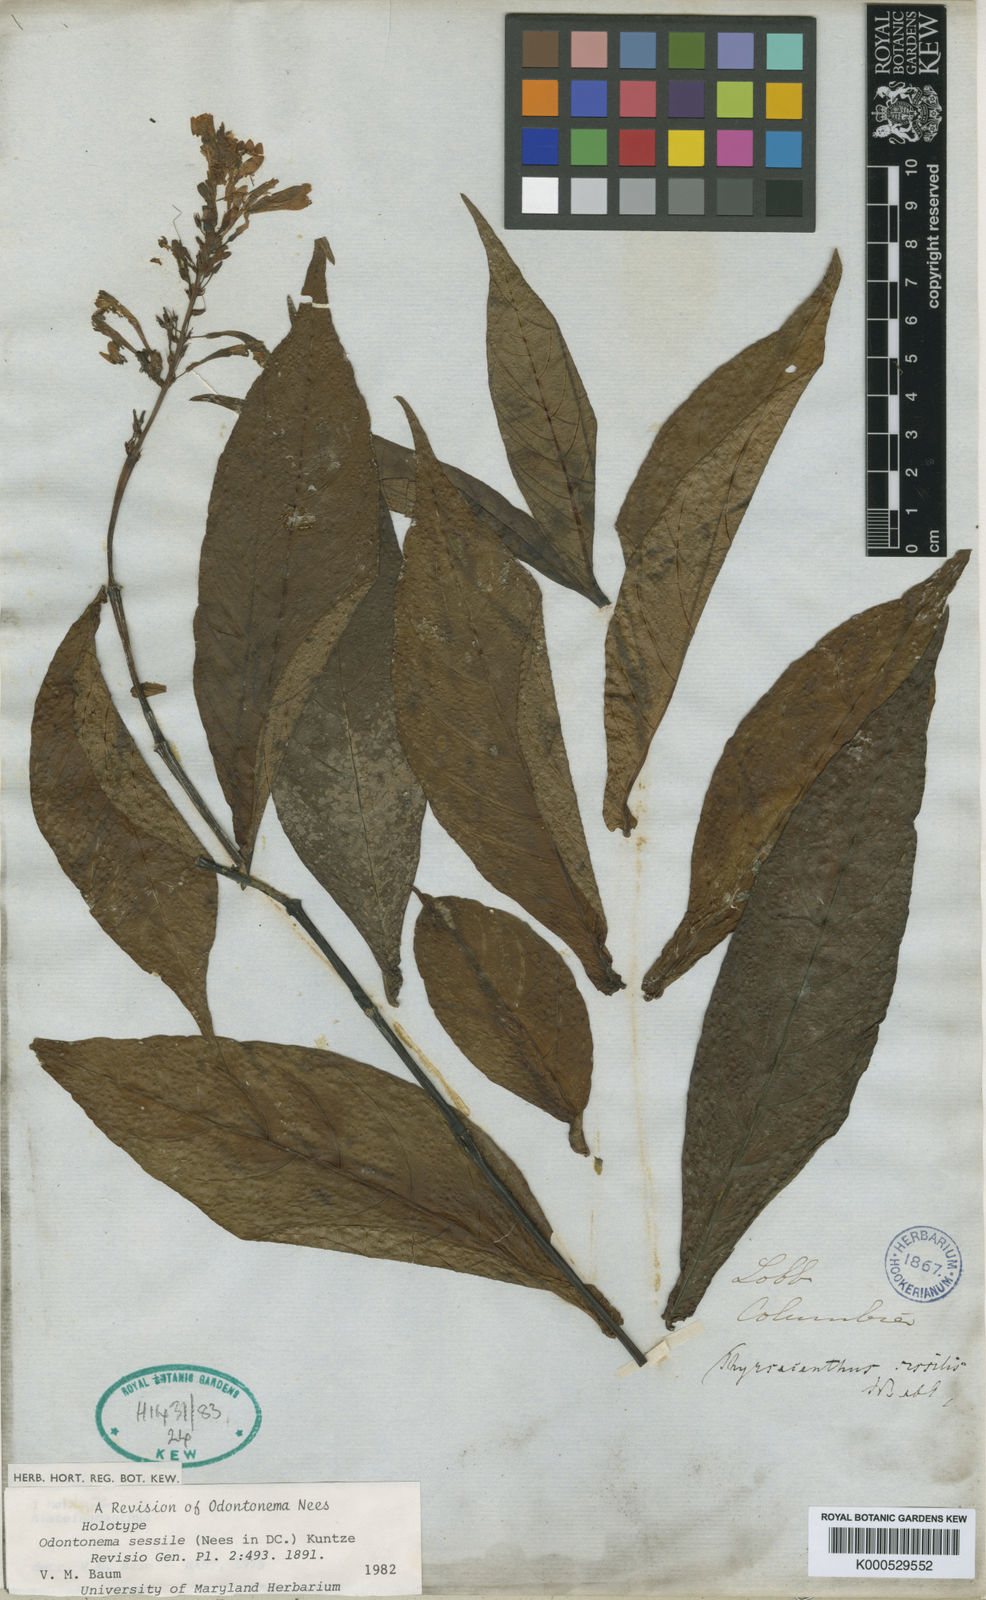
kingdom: Plantae
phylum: Tracheophyta
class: Magnoliopsida
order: Lamiales
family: Acanthaceae
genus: Odontonema
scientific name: Odontonema sessile
